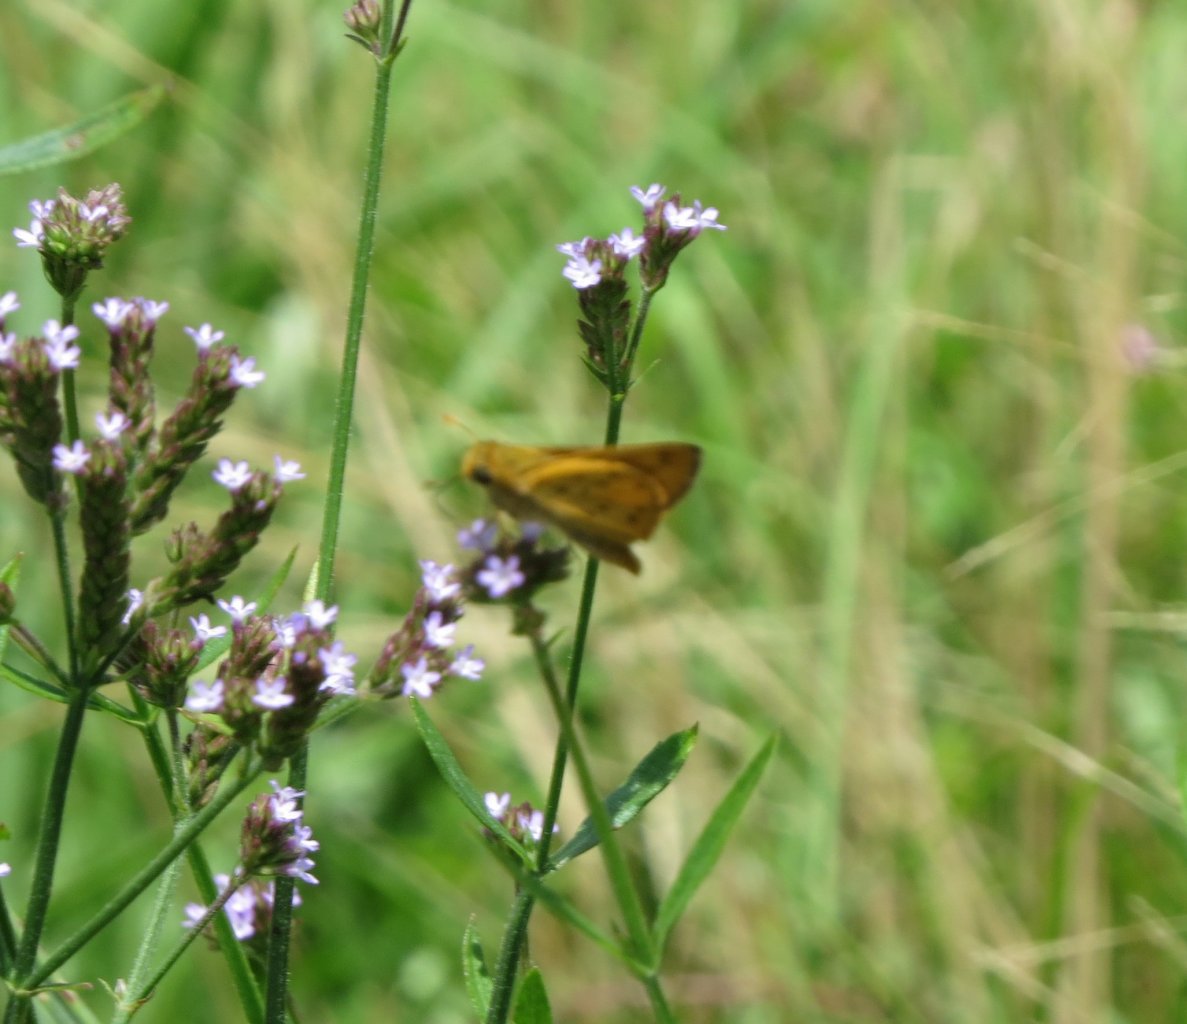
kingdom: Animalia
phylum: Arthropoda
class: Insecta
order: Lepidoptera
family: Hesperiidae
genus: Hylephila
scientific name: Hylephila phyleus
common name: Fiery Skipper
